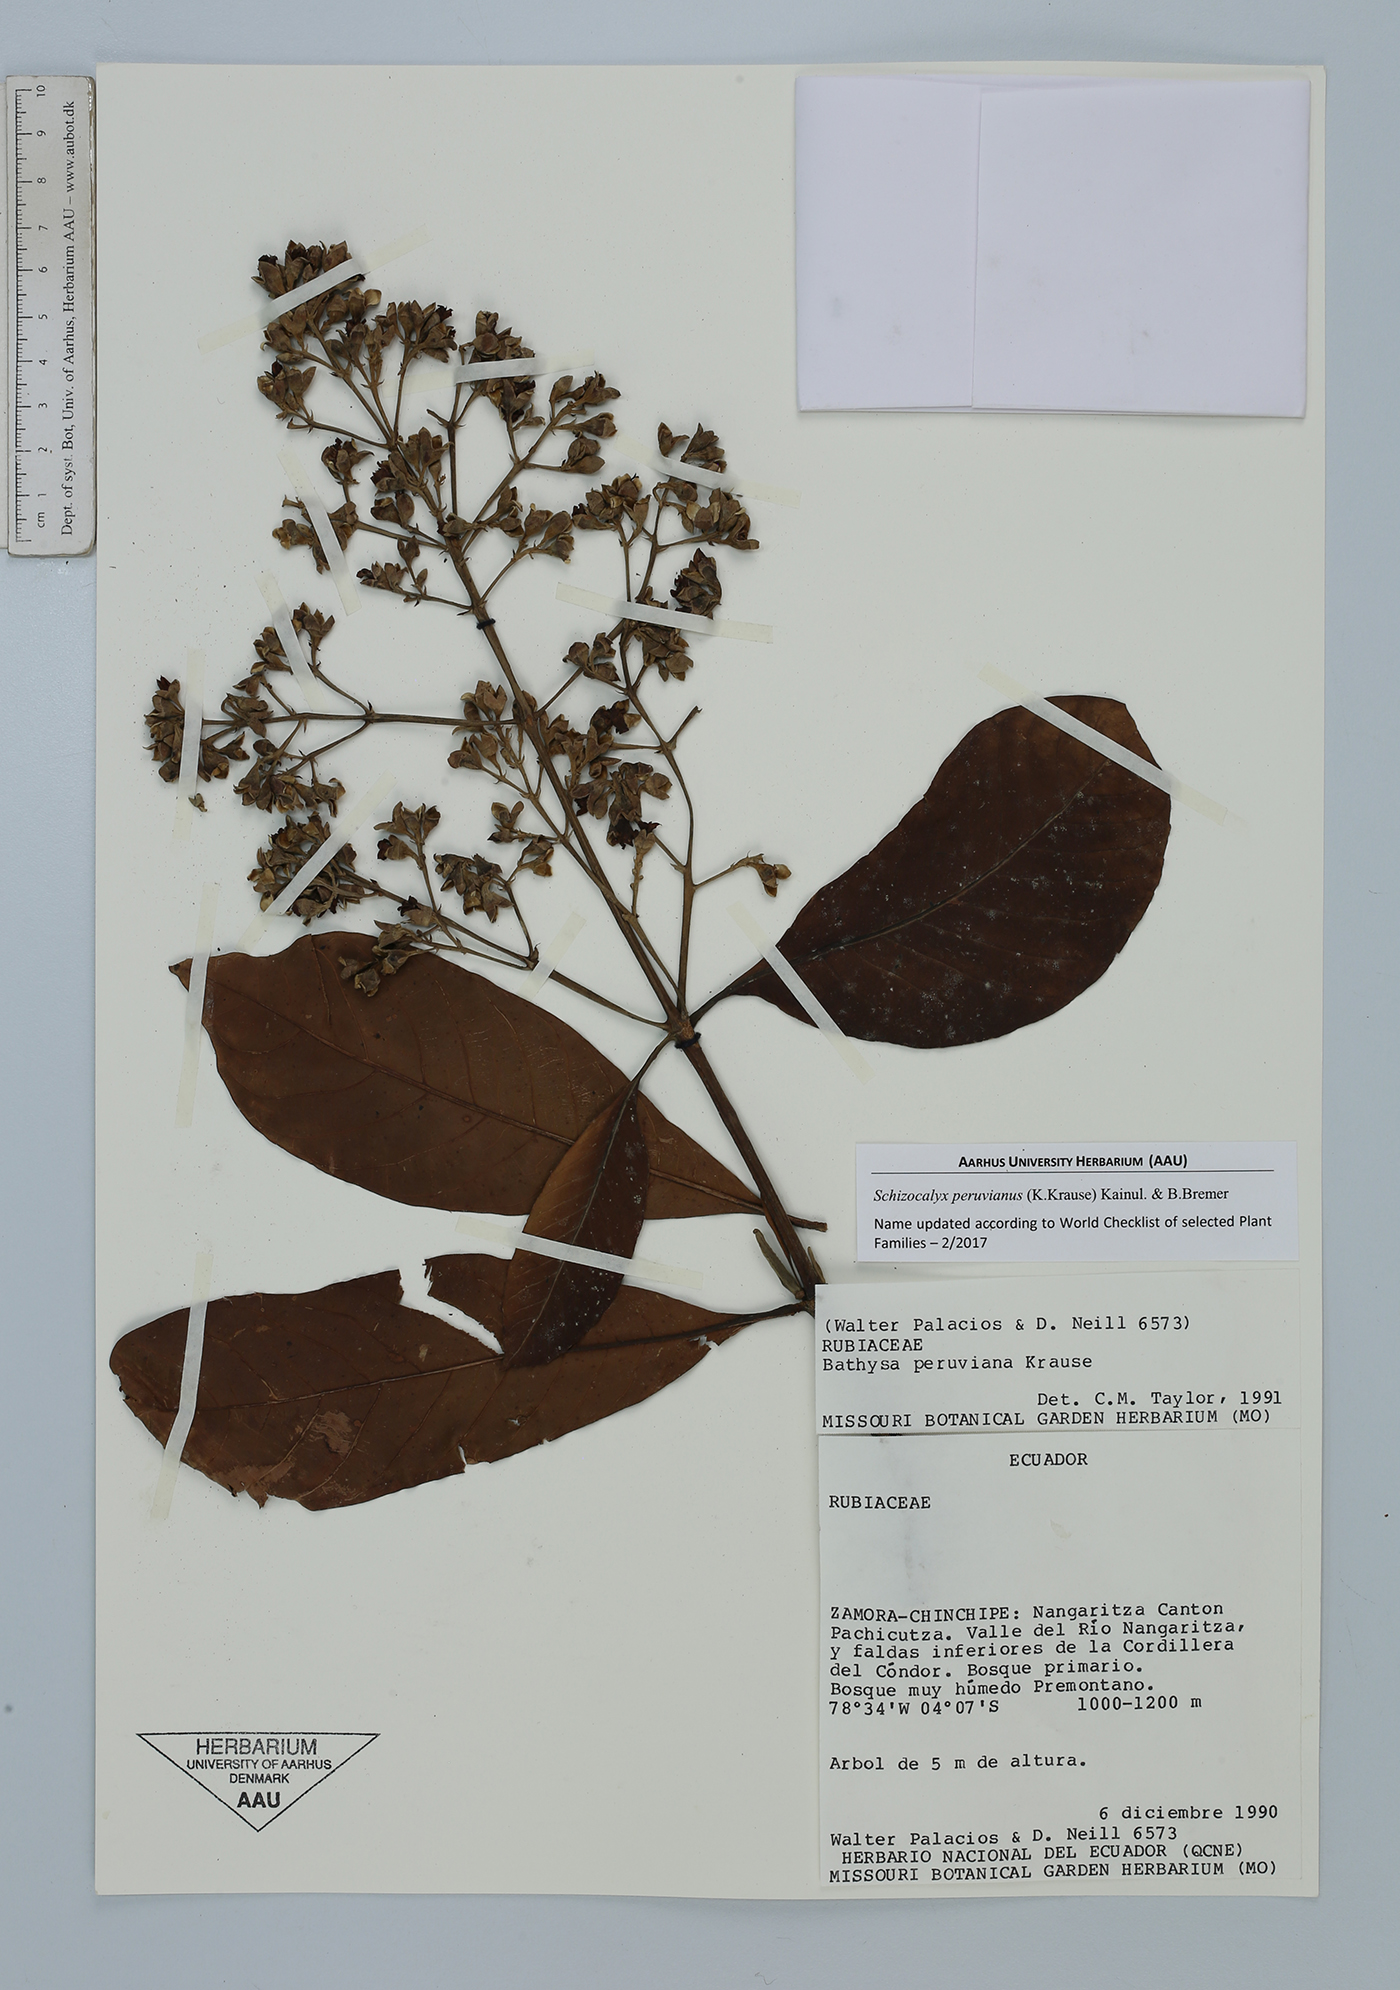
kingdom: Plantae
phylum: Tracheophyta
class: Magnoliopsida
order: Gentianales
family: Rubiaceae
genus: Schizocalyx
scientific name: Schizocalyx peruvianus
